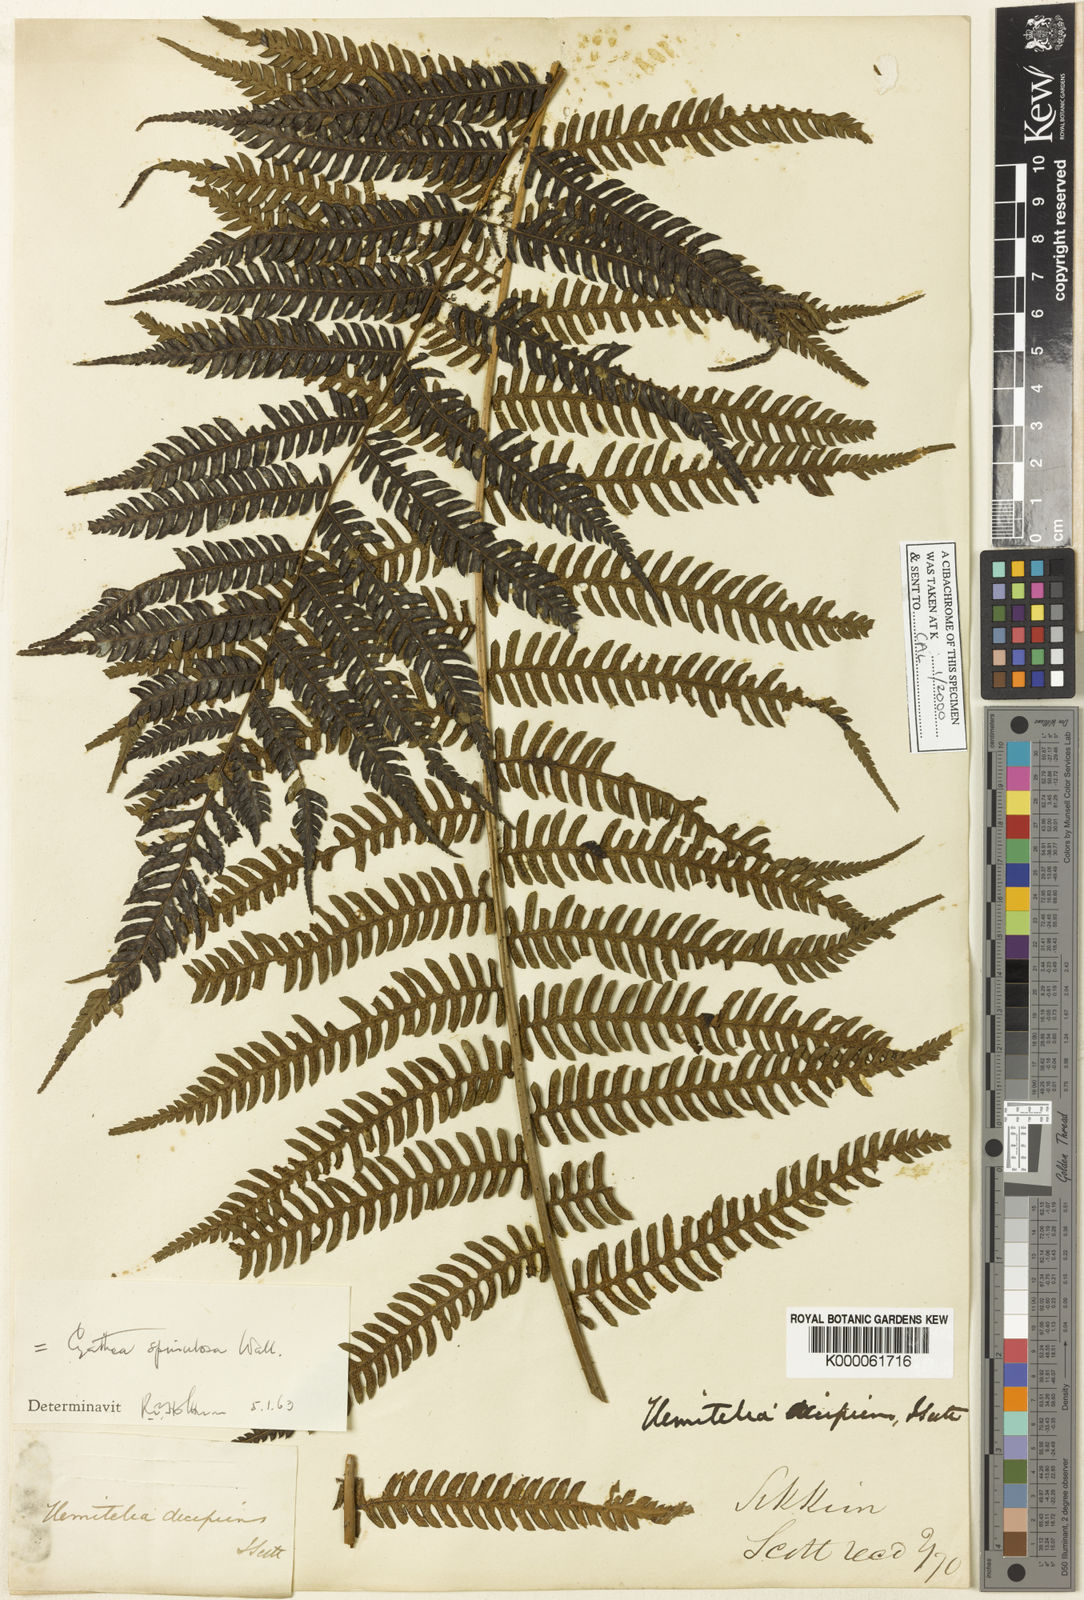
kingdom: Plantae
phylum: Tracheophyta
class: Polypodiopsida
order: Cyatheales
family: Cyatheaceae
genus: Cyathea
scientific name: Cyathea
